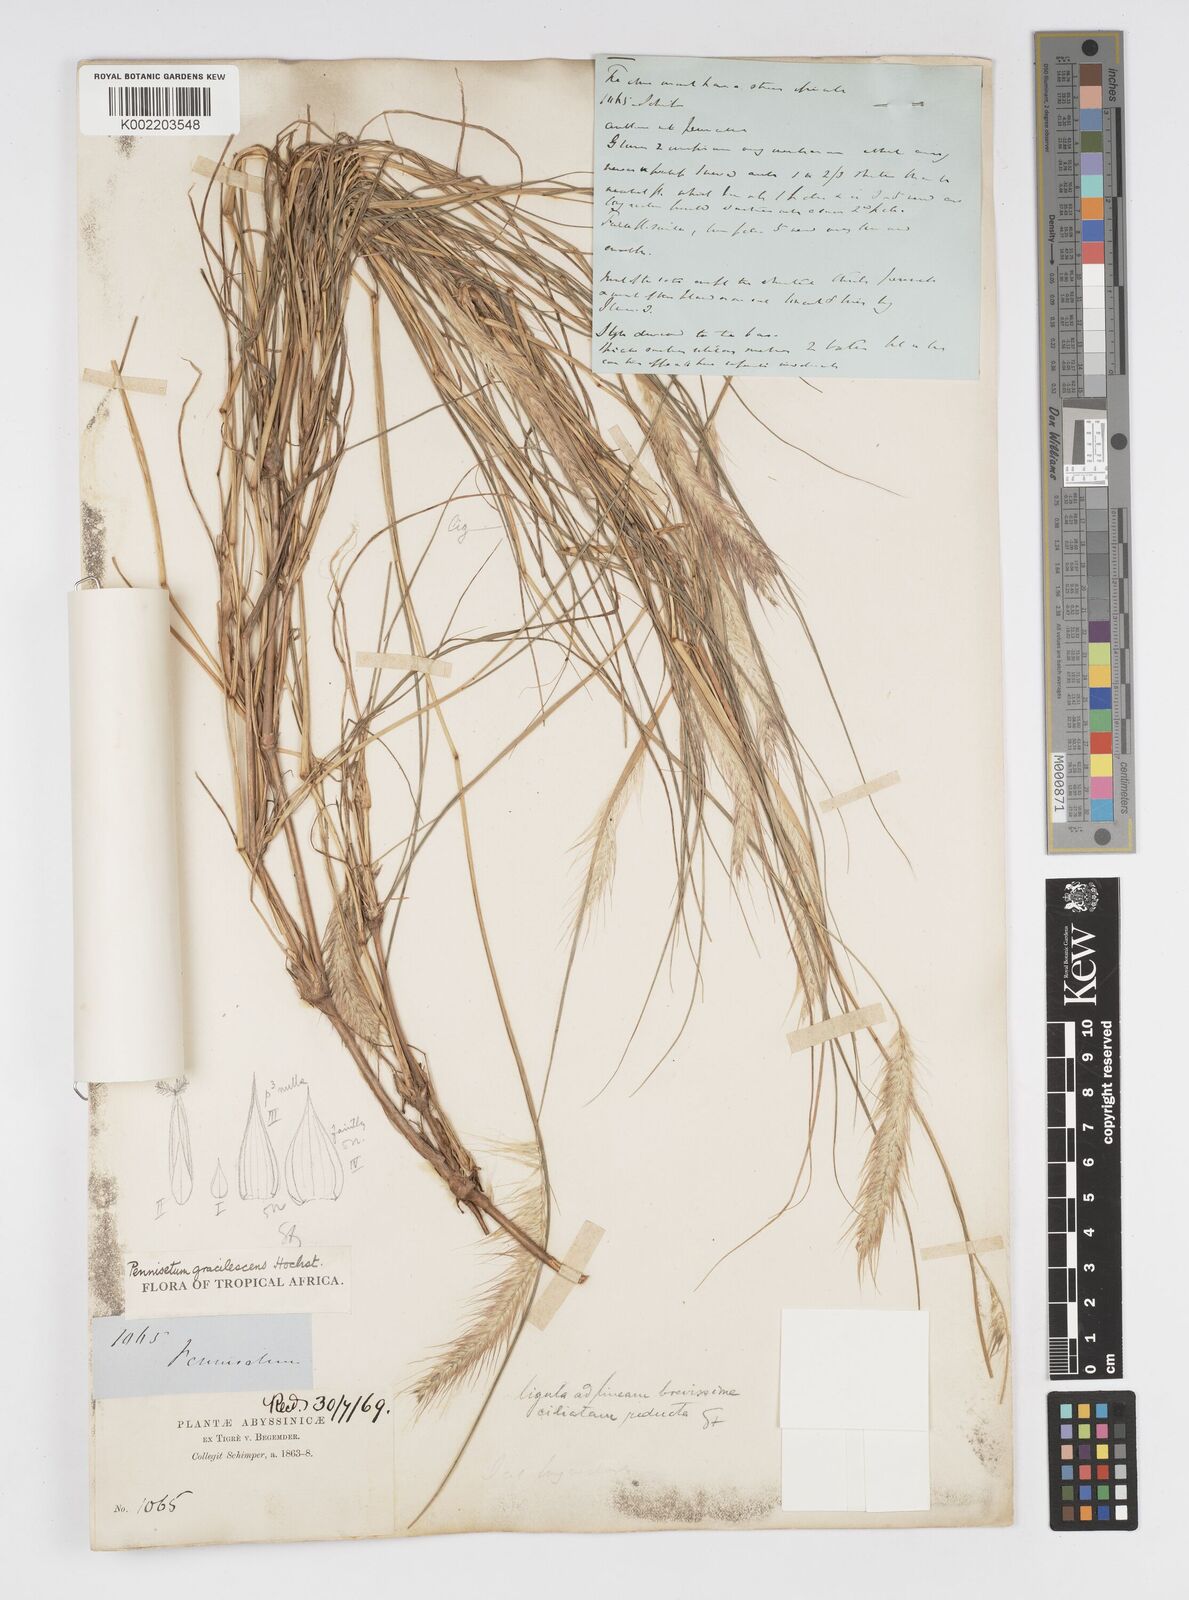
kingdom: Plantae
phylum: Tracheophyta
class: Liliopsida
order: Poales
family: Poaceae
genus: Cenchrus
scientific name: Cenchrus gracilescens
